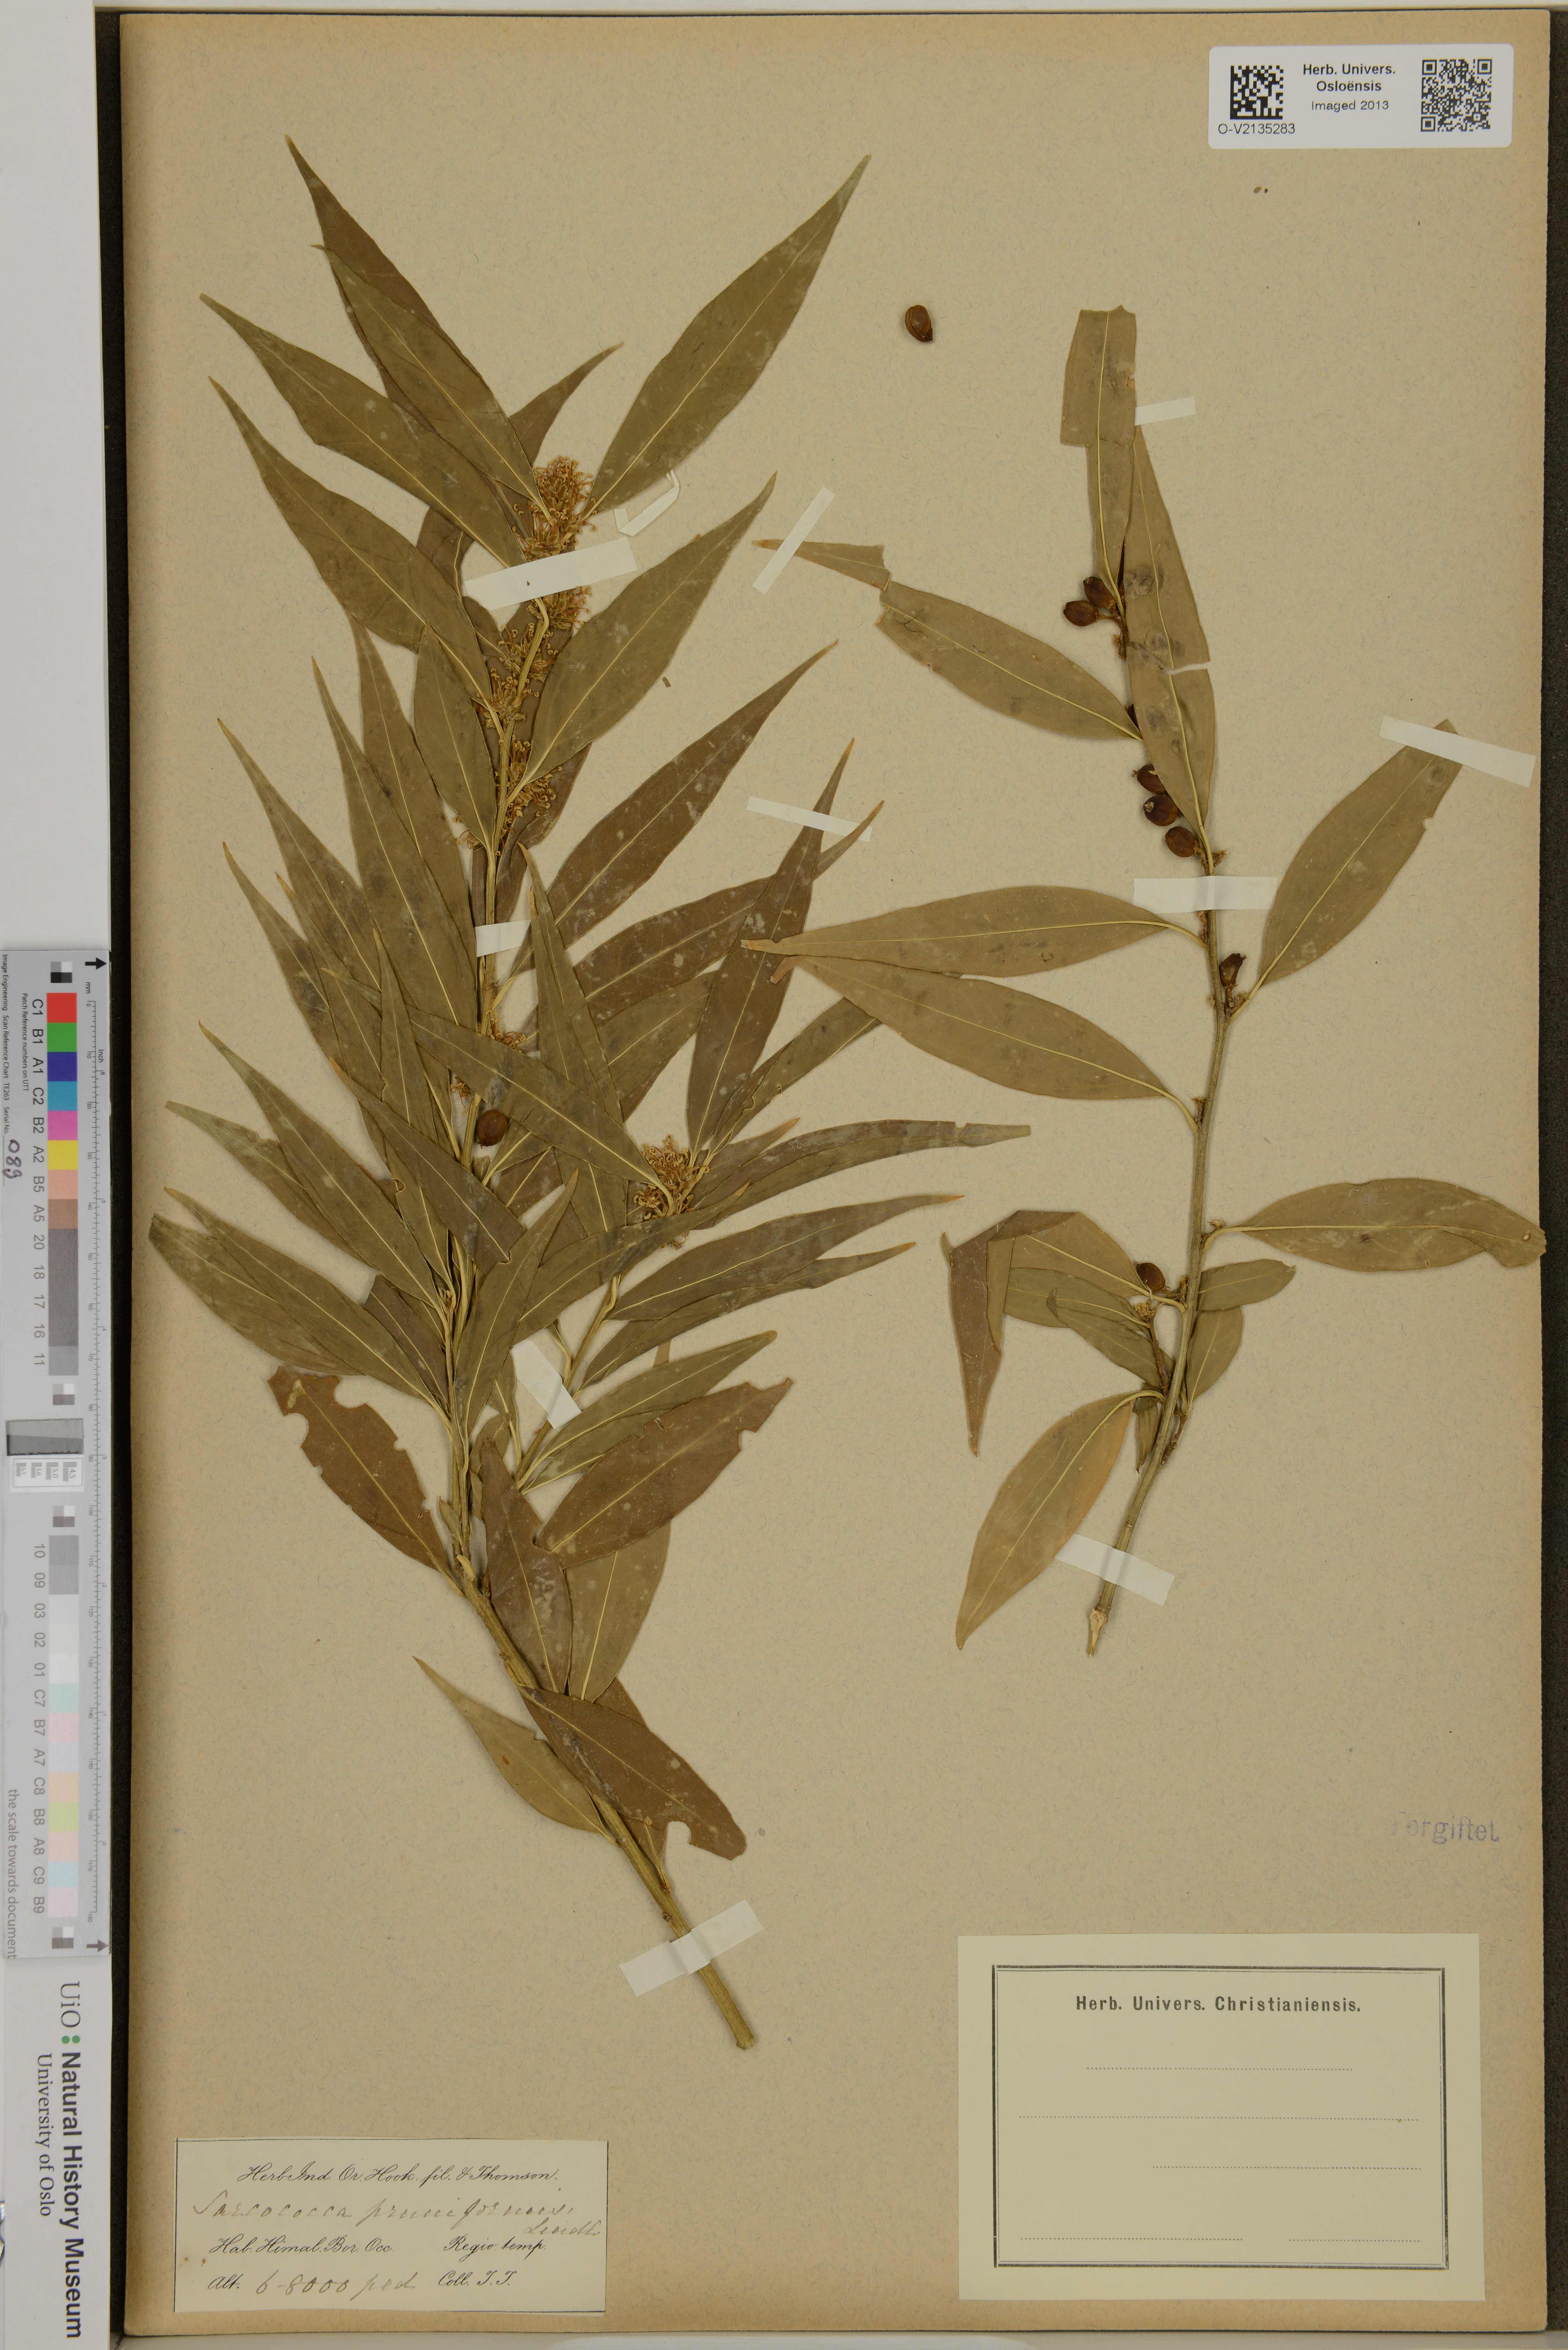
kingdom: Plantae
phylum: Tracheophyta
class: Magnoliopsida
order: Buxales
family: Buxaceae
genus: Sarcococca
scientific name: Sarcococca coriacea
